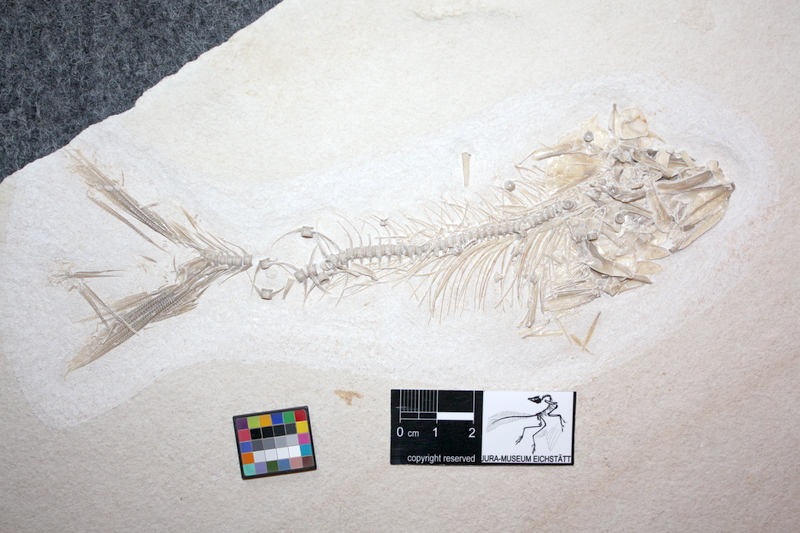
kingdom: Animalia
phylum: Chordata
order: Elopiformes
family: Anaethalionidae
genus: Anaethalion
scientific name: Anaethalion
